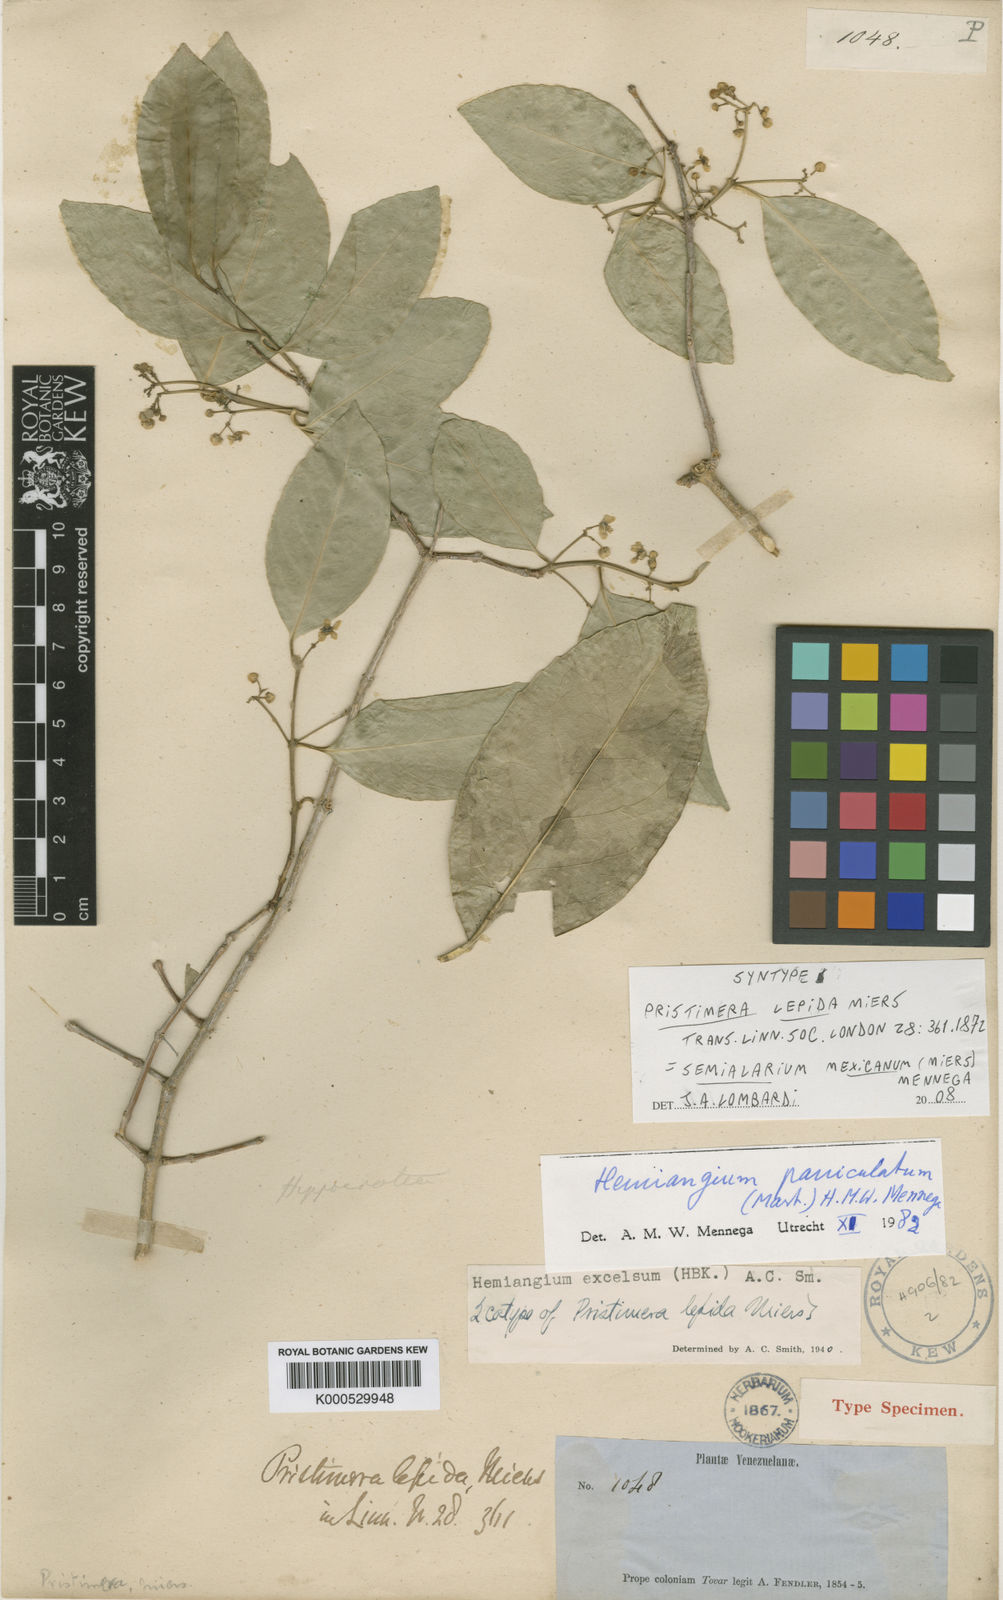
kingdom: Plantae
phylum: Tracheophyta
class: Magnoliopsida
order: Celastrales
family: Celastraceae
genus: Semialarium
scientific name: Semialarium
